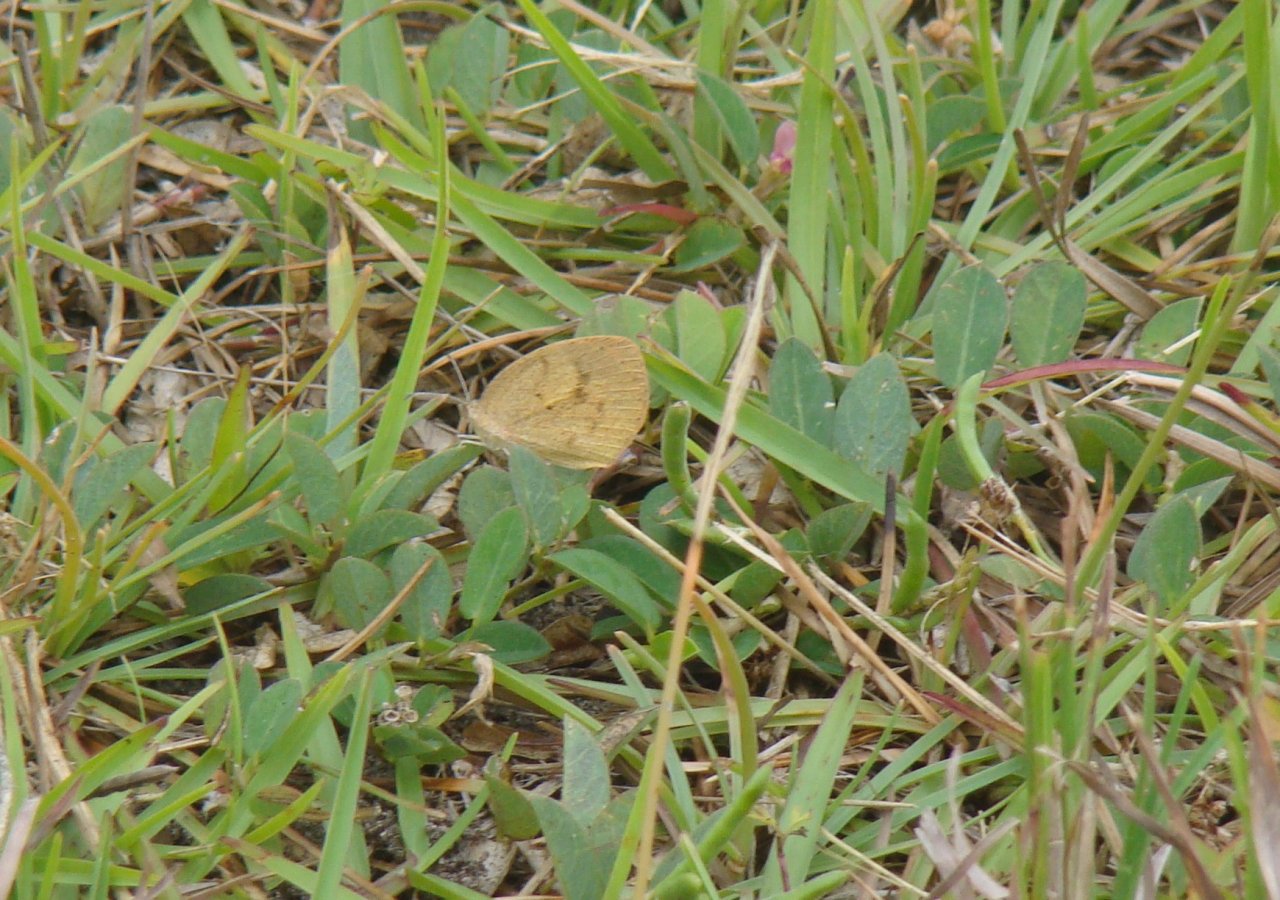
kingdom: Animalia
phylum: Arthropoda
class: Insecta
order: Lepidoptera
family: Pieridae
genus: Colias
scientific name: Colias eurytheme
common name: Orange Sulphur
